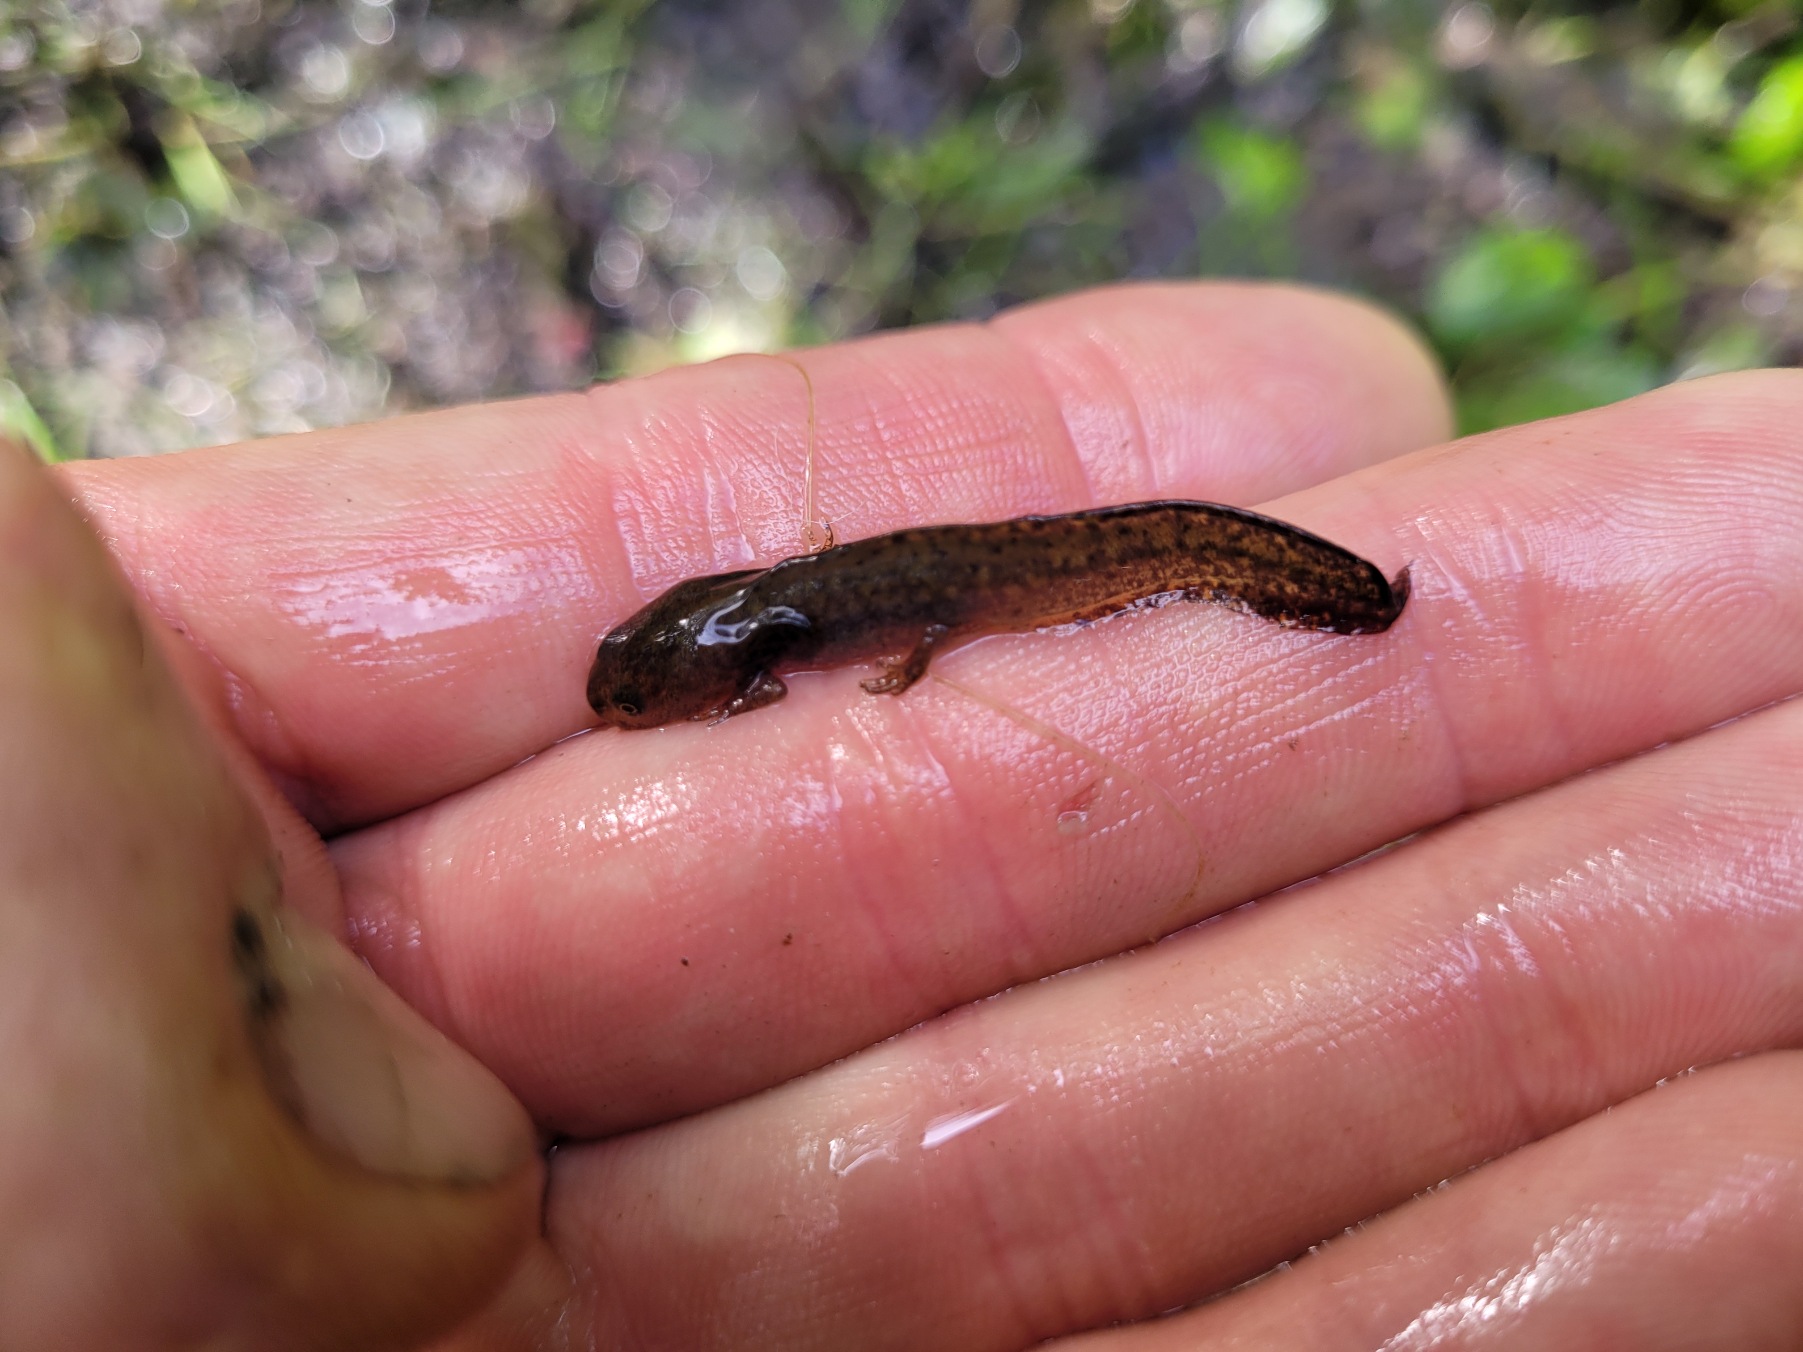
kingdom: Animalia
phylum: Chordata
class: Amphibia
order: Caudata
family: Salamandridae
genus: Ichthyosaura
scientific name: Ichthyosaura alpestris
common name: Bjergsalamander
